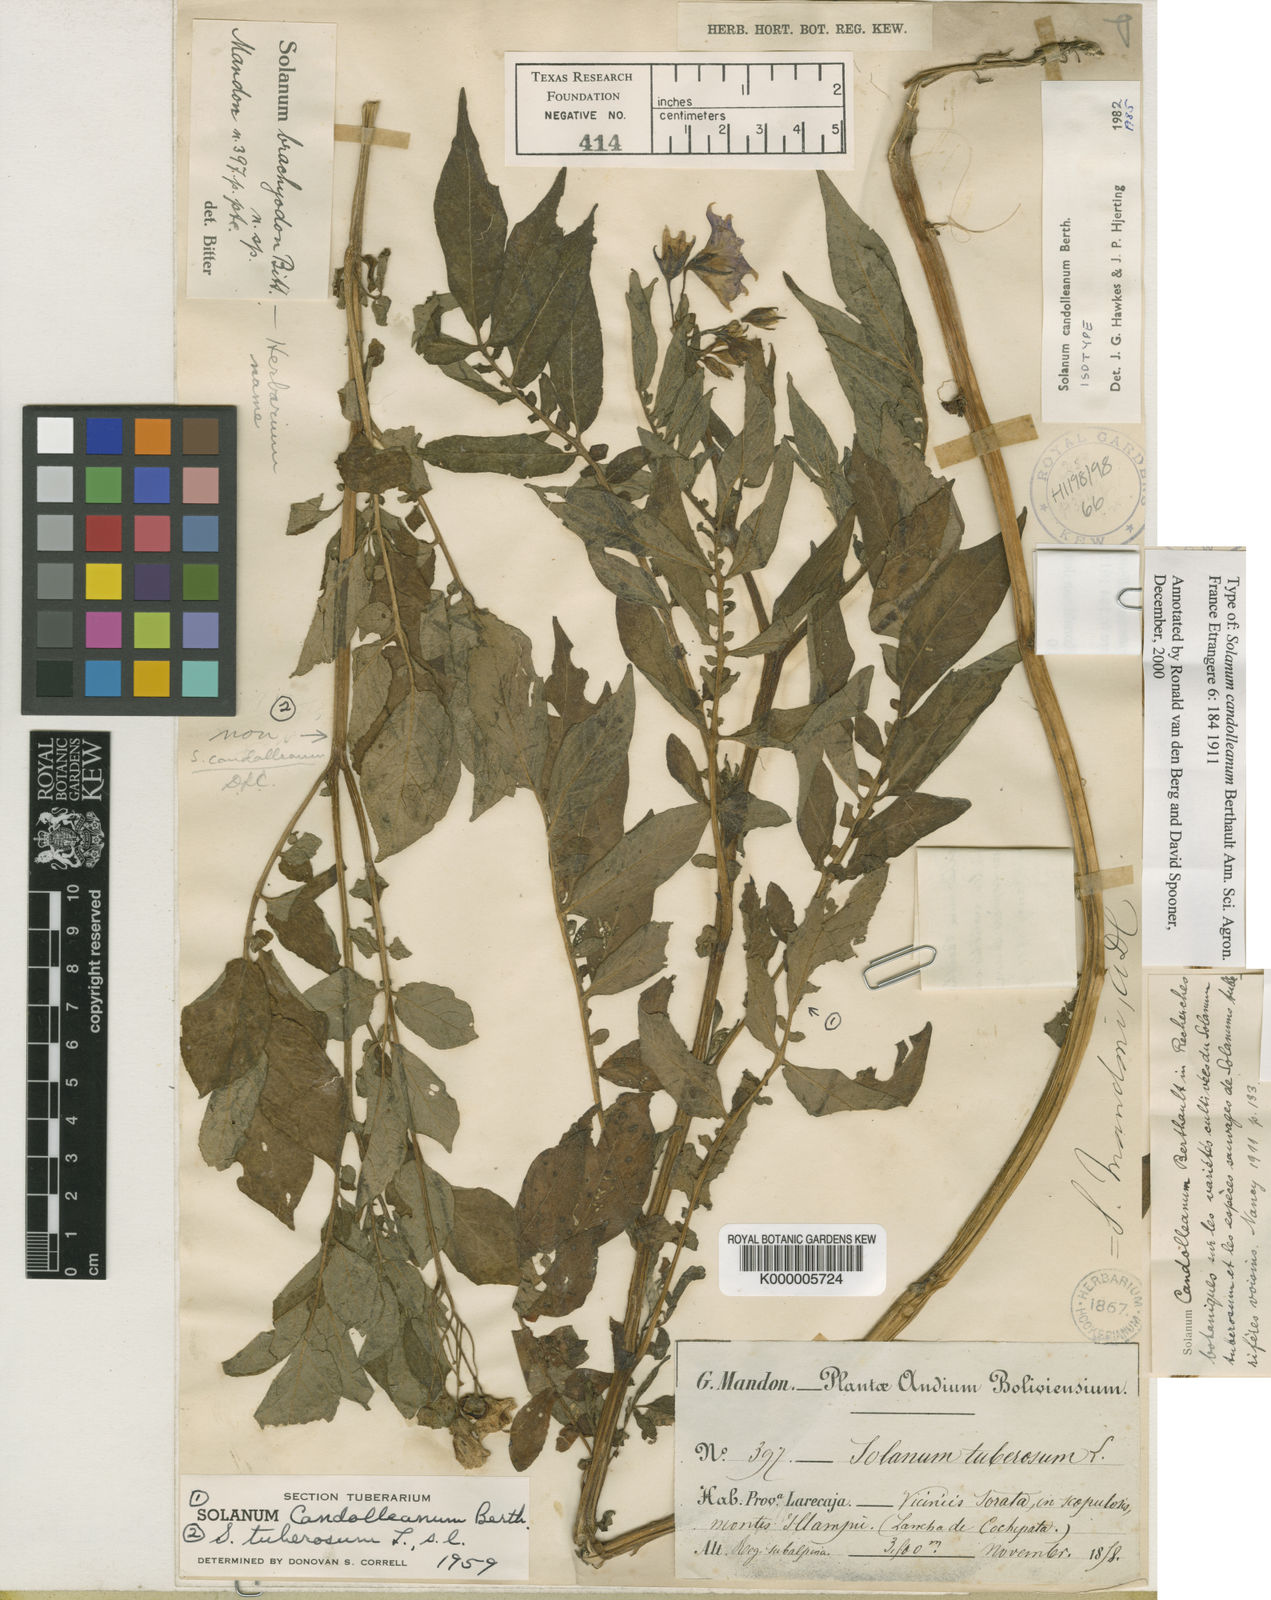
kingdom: Plantae
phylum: Tracheophyta
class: Magnoliopsida
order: Solanales
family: Solanaceae
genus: Solanum
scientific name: Solanum brevicaule
